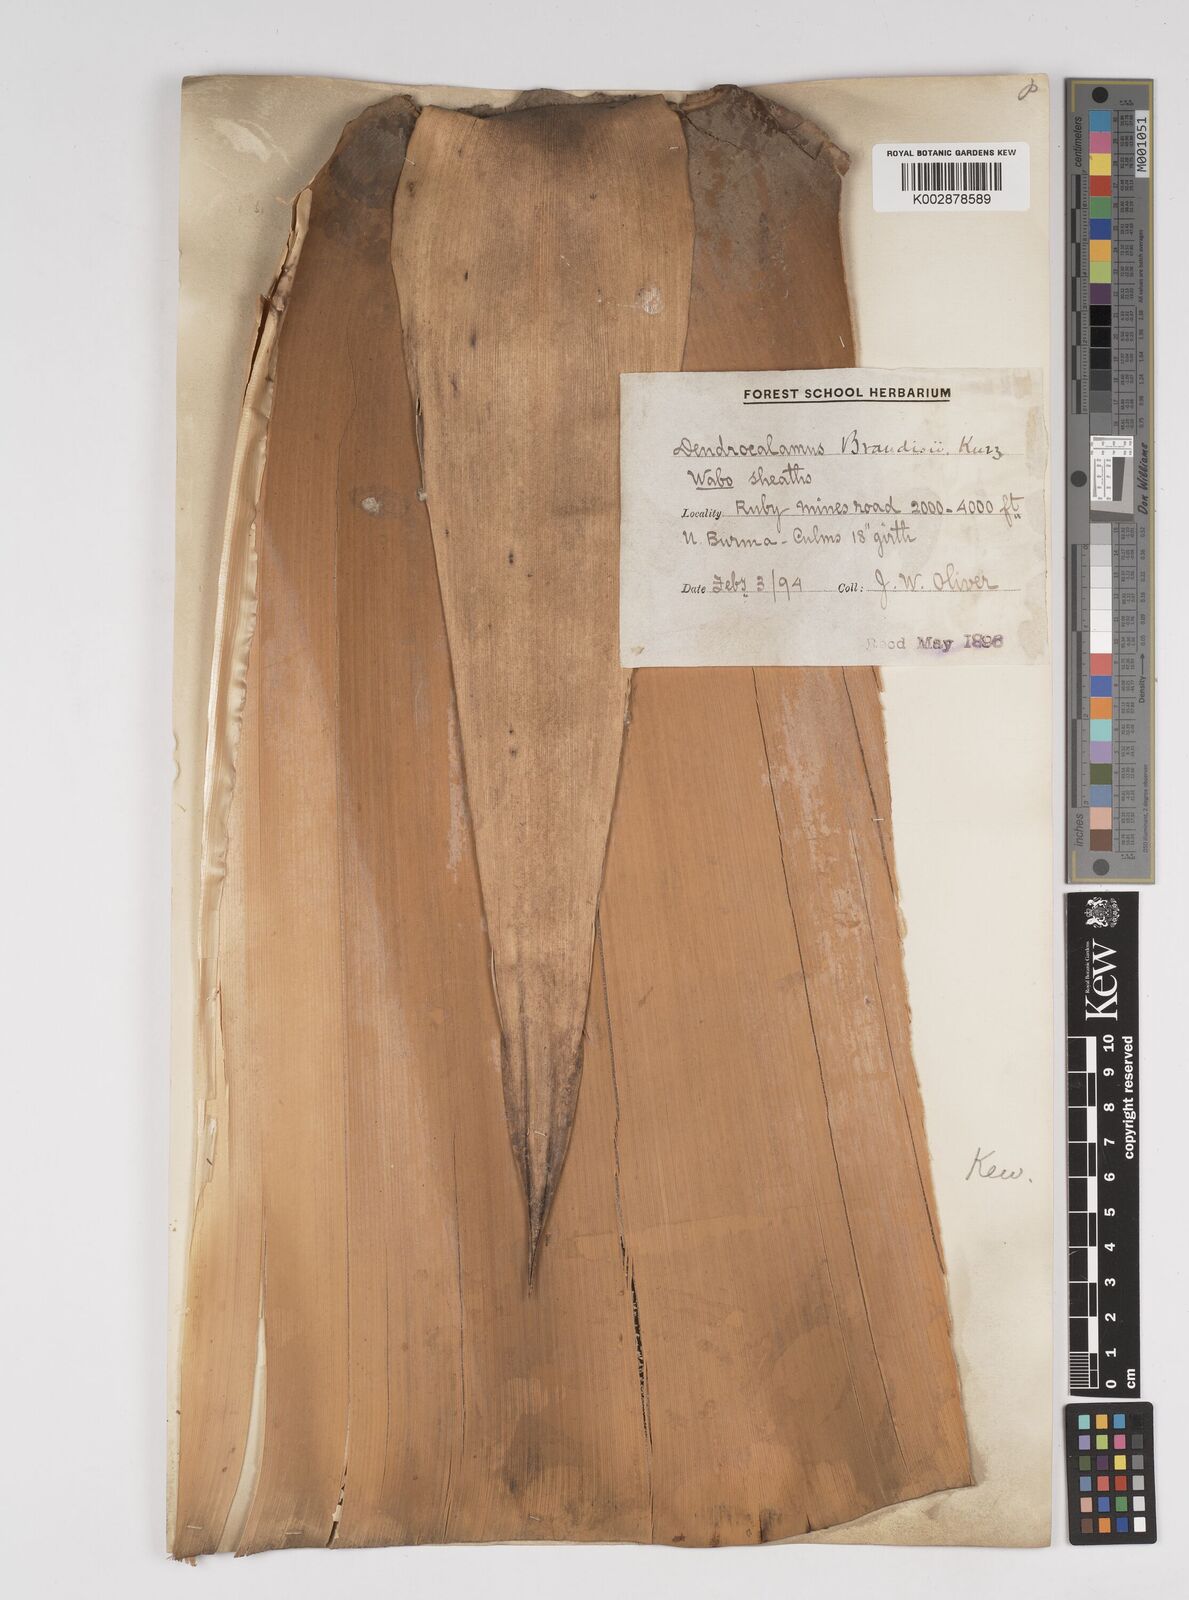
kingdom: Plantae
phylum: Tracheophyta
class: Liliopsida
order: Poales
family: Poaceae
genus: Dendrocalamus
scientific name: Dendrocalamus brandisii
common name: Velvetleaf bamboo
